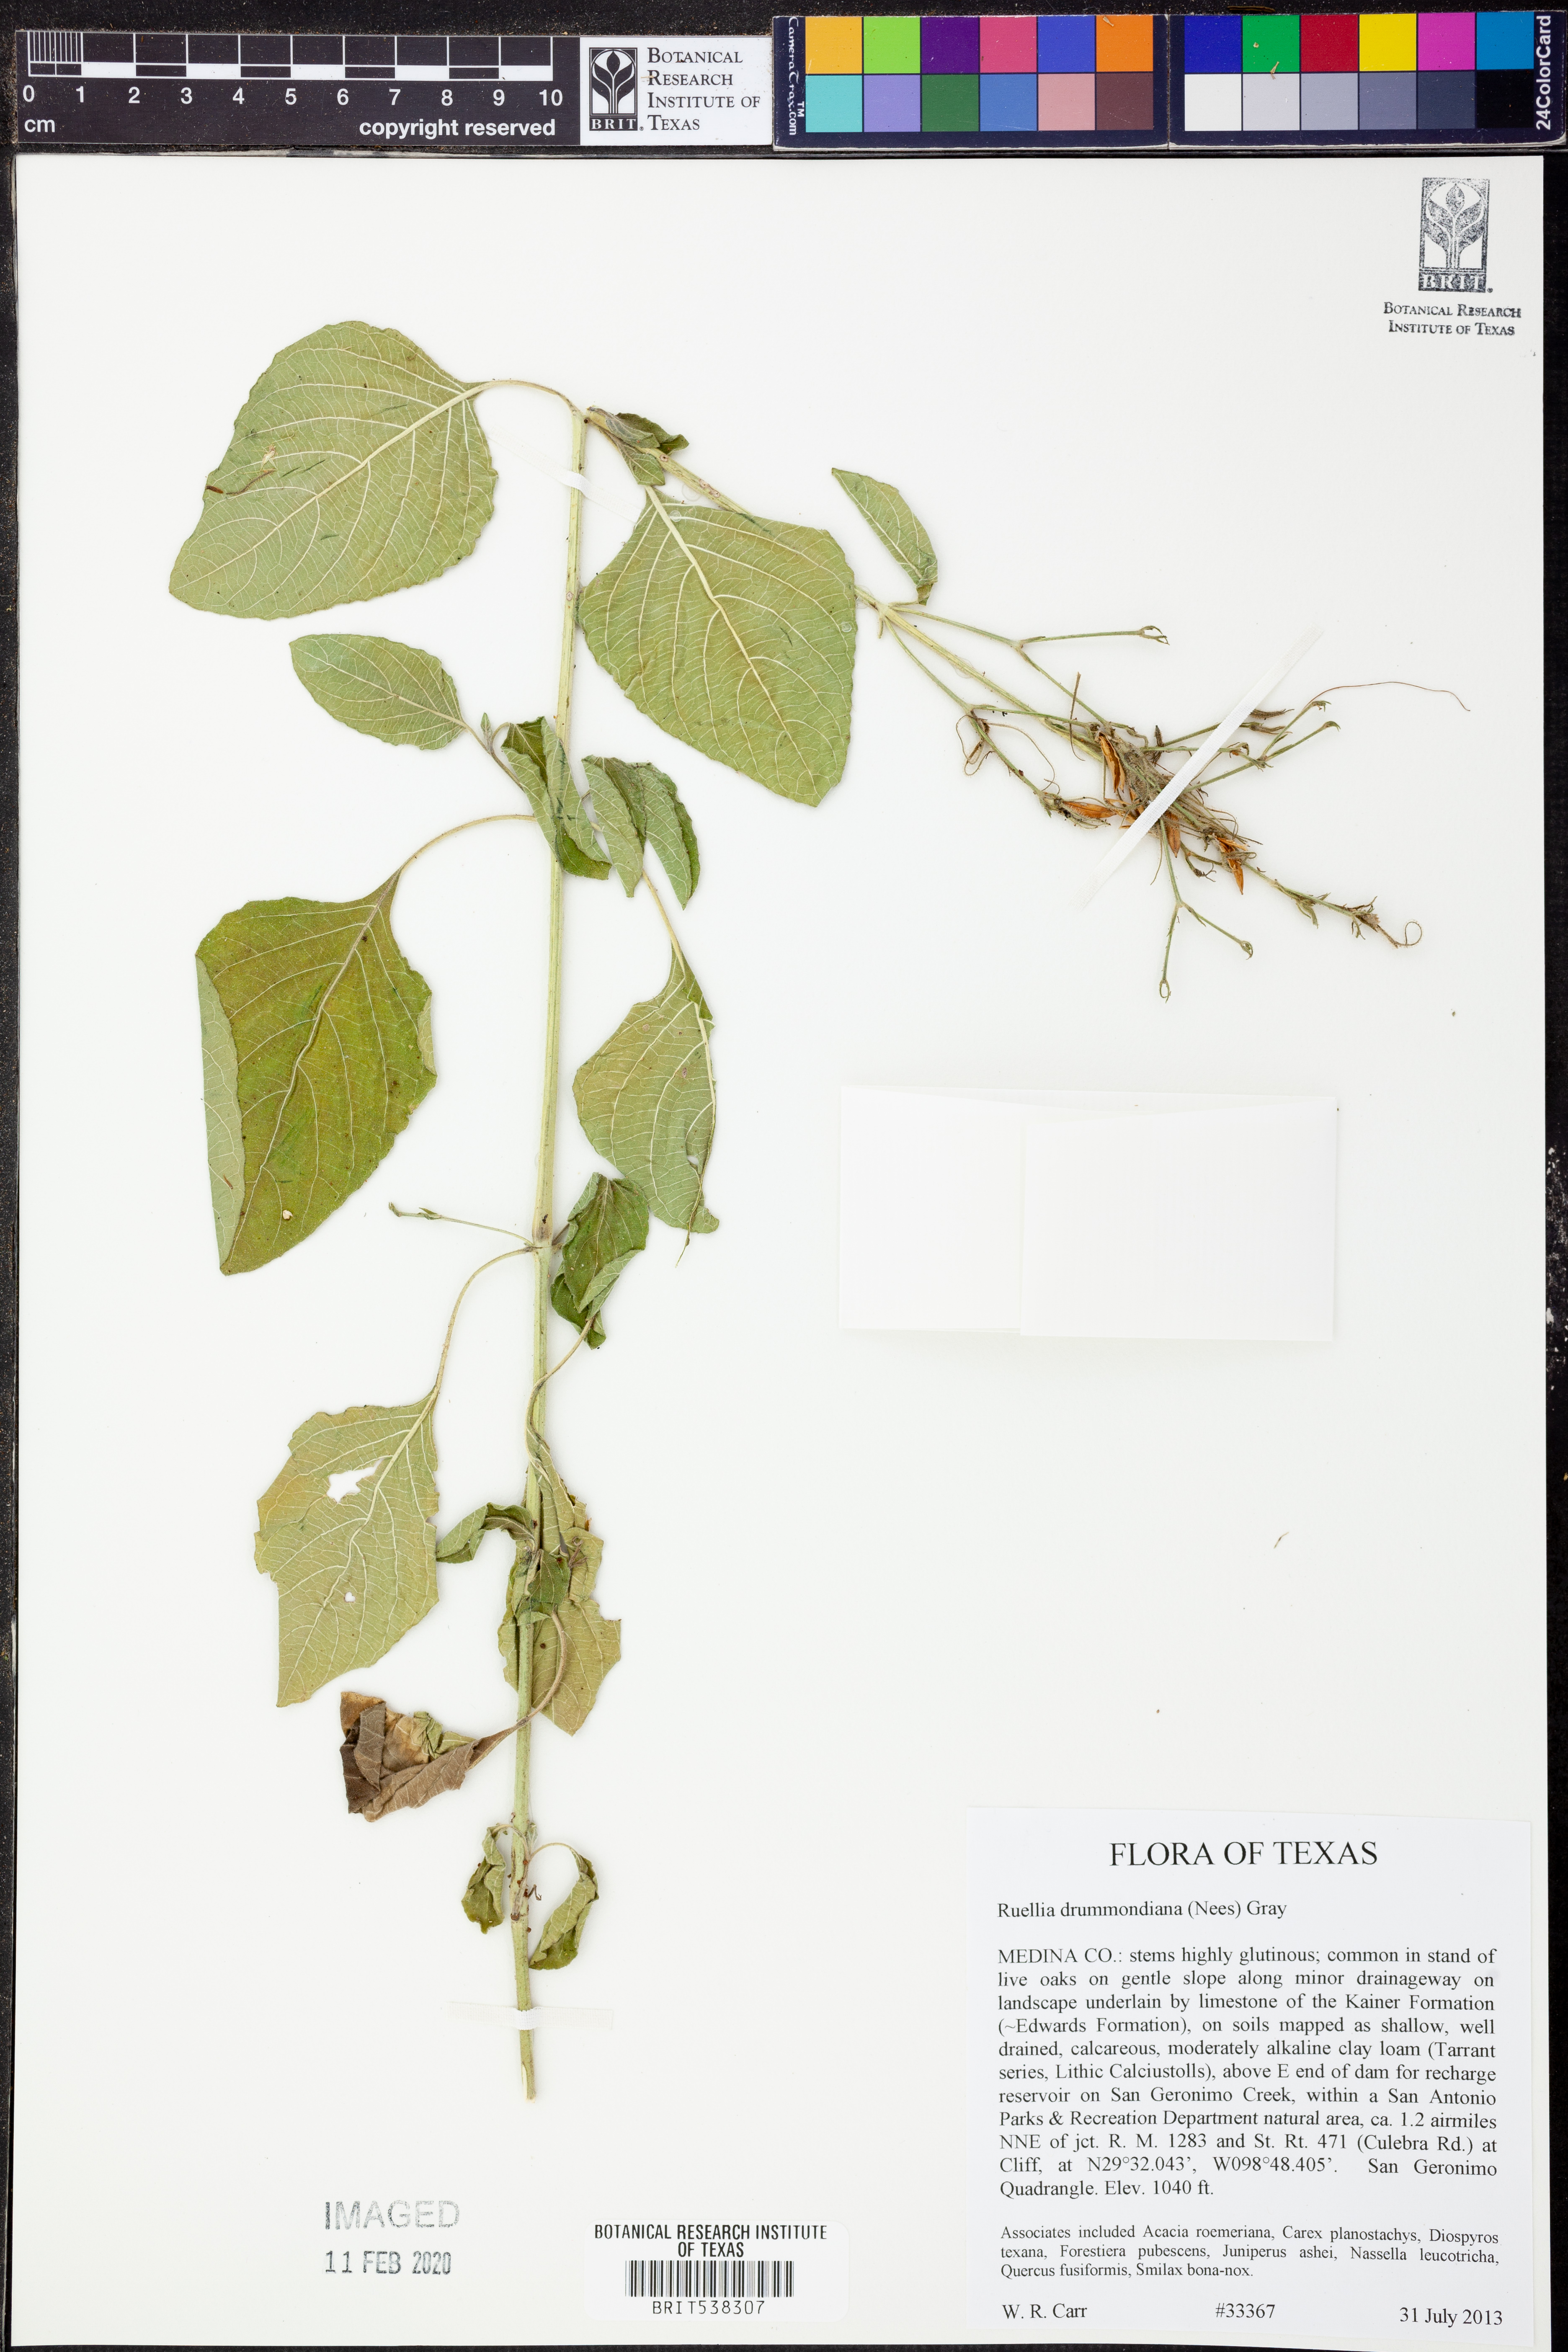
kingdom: Plantae
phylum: Tracheophyta
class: Magnoliopsida
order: Lamiales
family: Acanthaceae
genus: Ruellia
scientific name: Ruellia drummondiana
